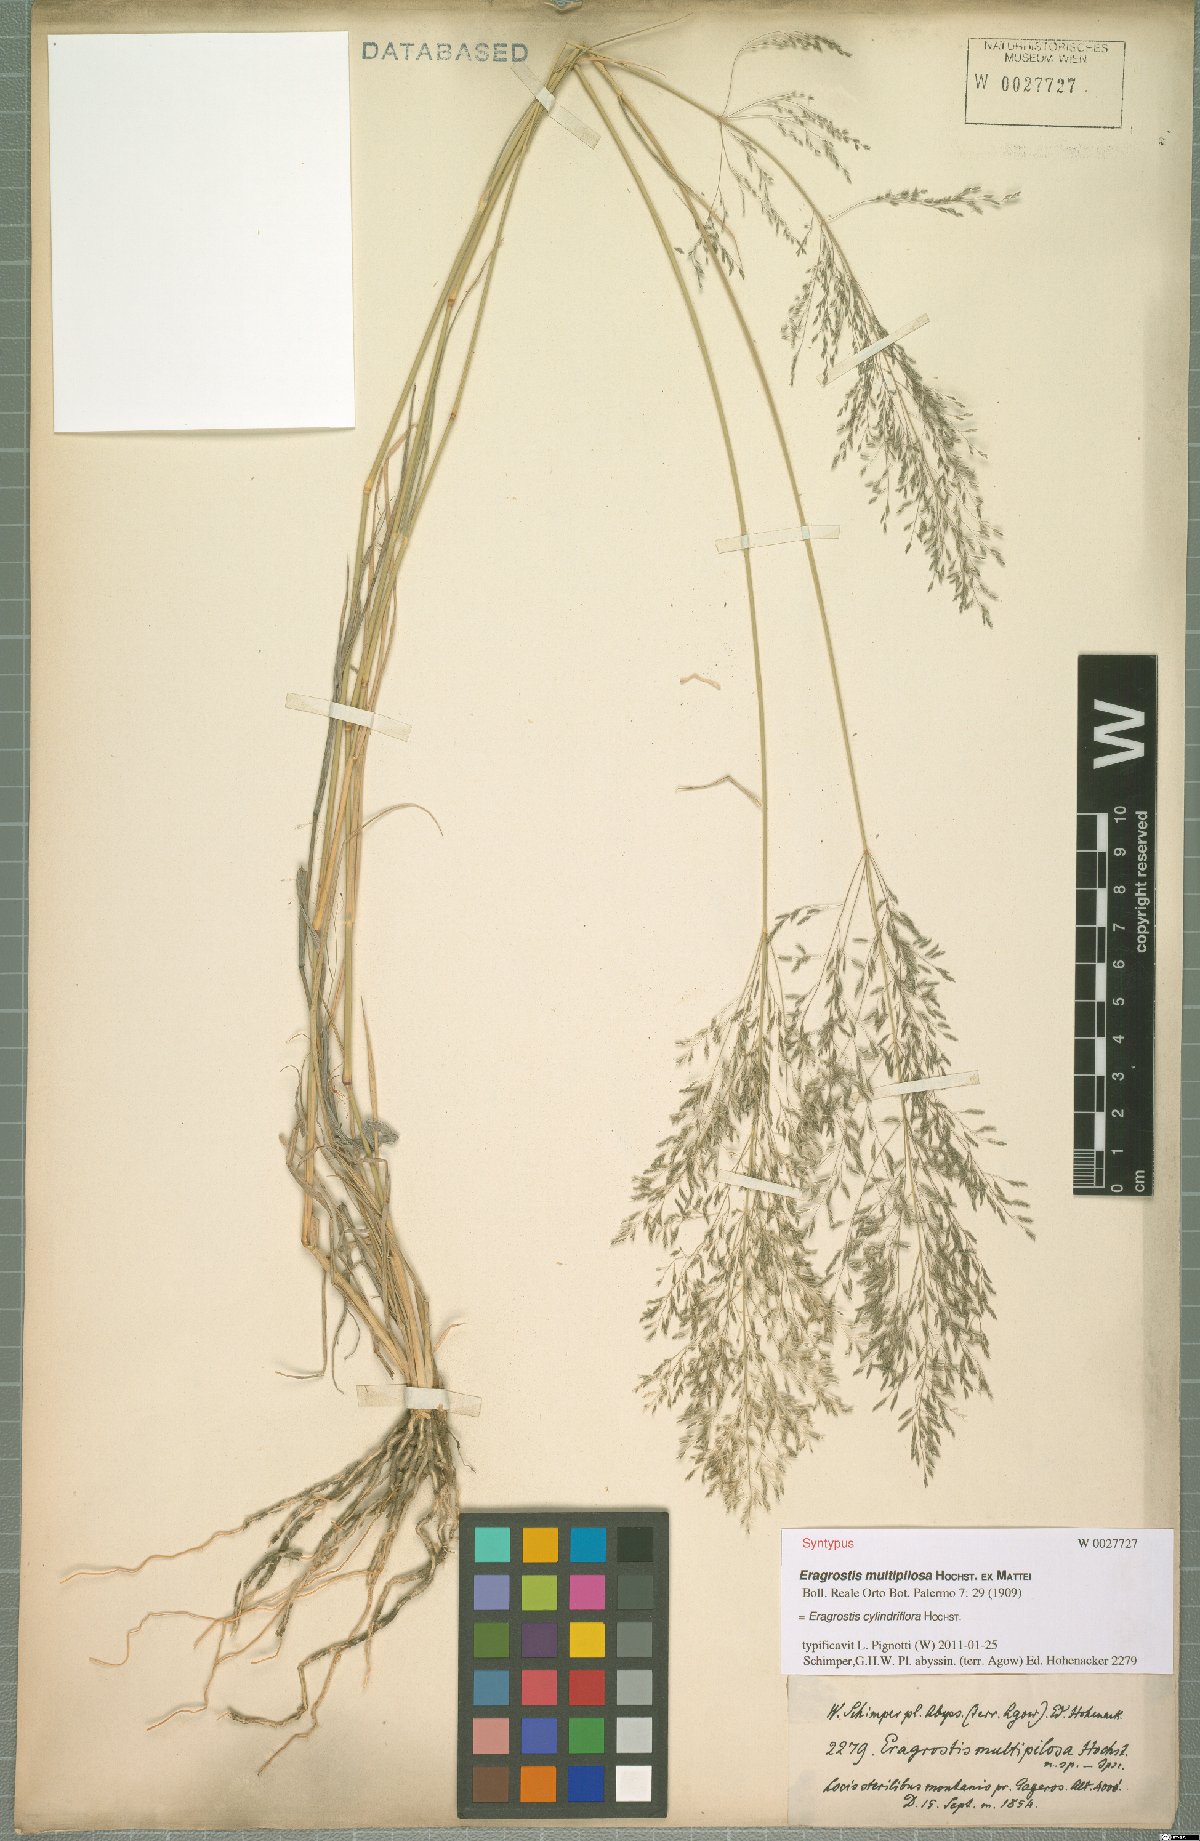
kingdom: Plantae
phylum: Tracheophyta
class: Liliopsida
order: Poales
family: Poaceae
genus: Eragrostis
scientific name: Eragrostis cylindriflora
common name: Cylinderflower lovegrass
